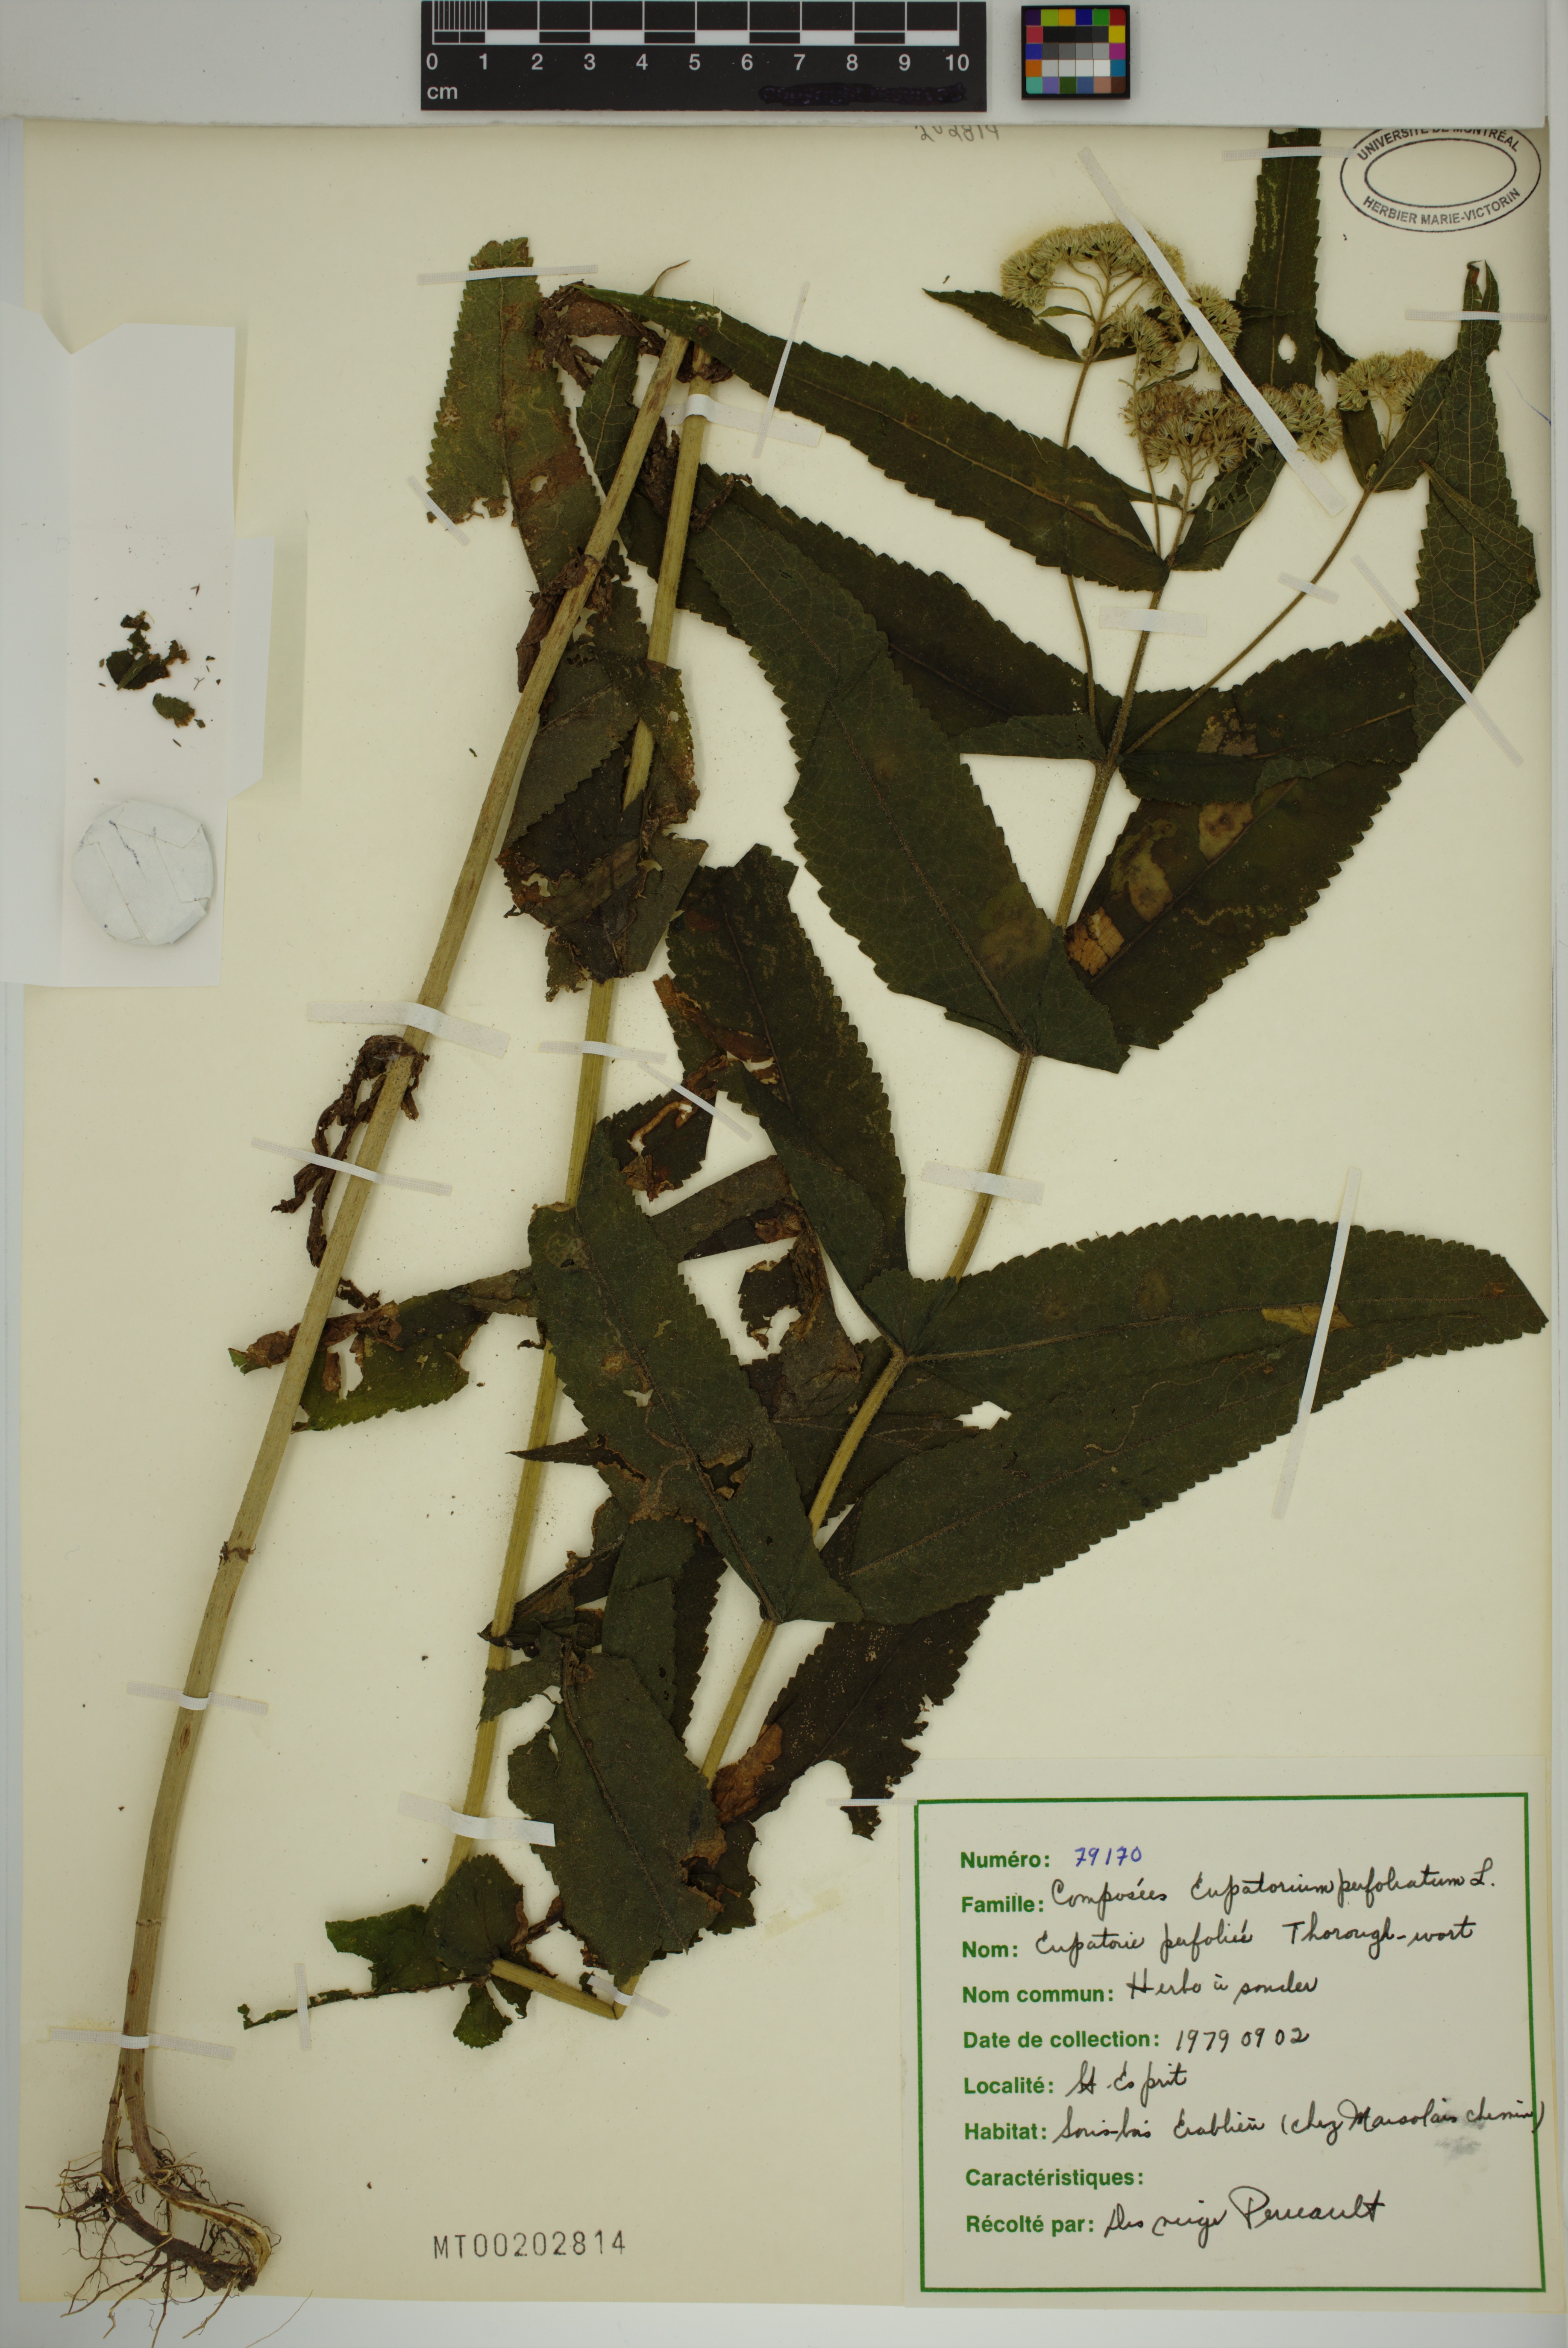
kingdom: Plantae
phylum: Tracheophyta
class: Magnoliopsida
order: Asterales
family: Asteraceae
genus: Eupatorium
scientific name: Eupatorium perfoliatum
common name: Boneset
